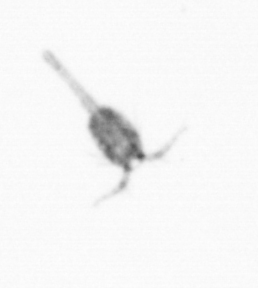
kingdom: Animalia
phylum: Arthropoda
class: Copepoda
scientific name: Copepoda
